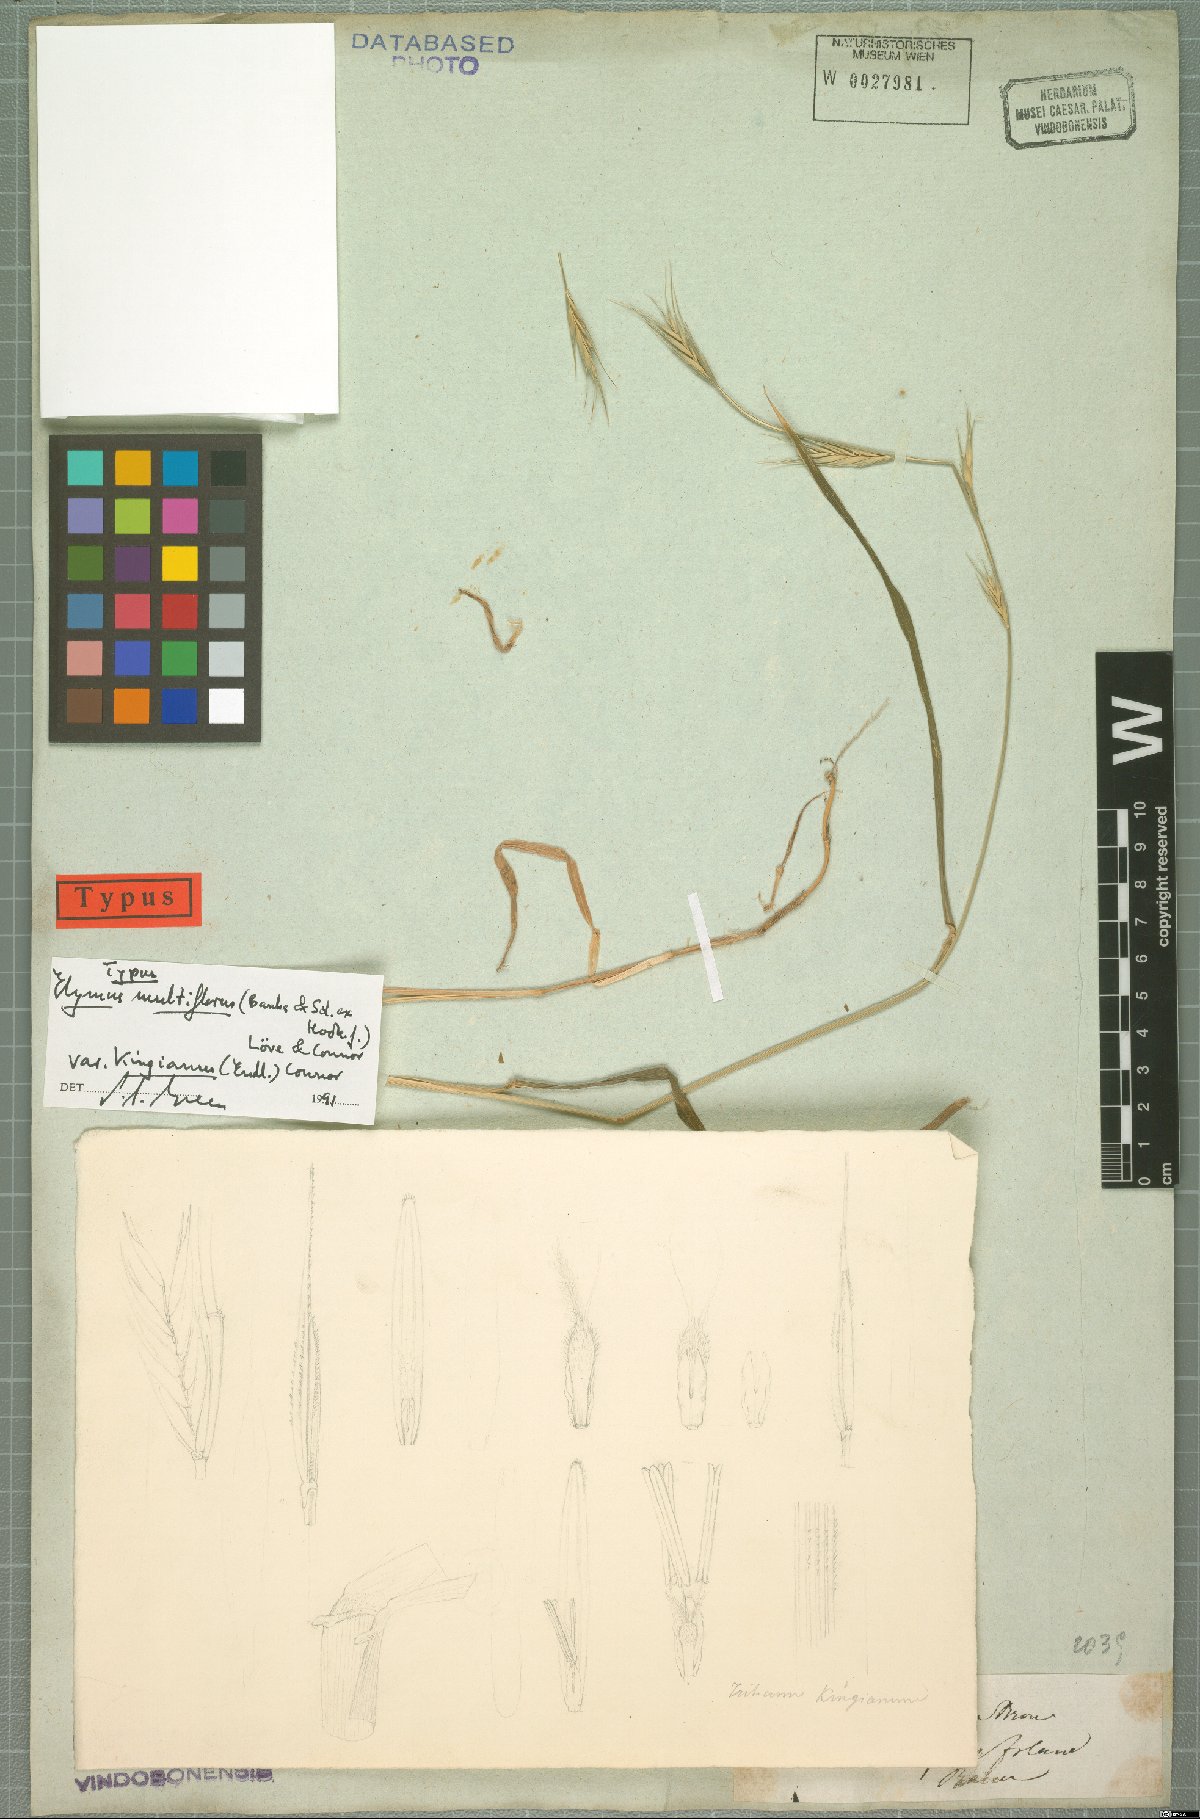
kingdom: Plantae
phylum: Tracheophyta
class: Liliopsida
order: Poales
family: Poaceae
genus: Anthosachne
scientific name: Anthosachne kingiana
